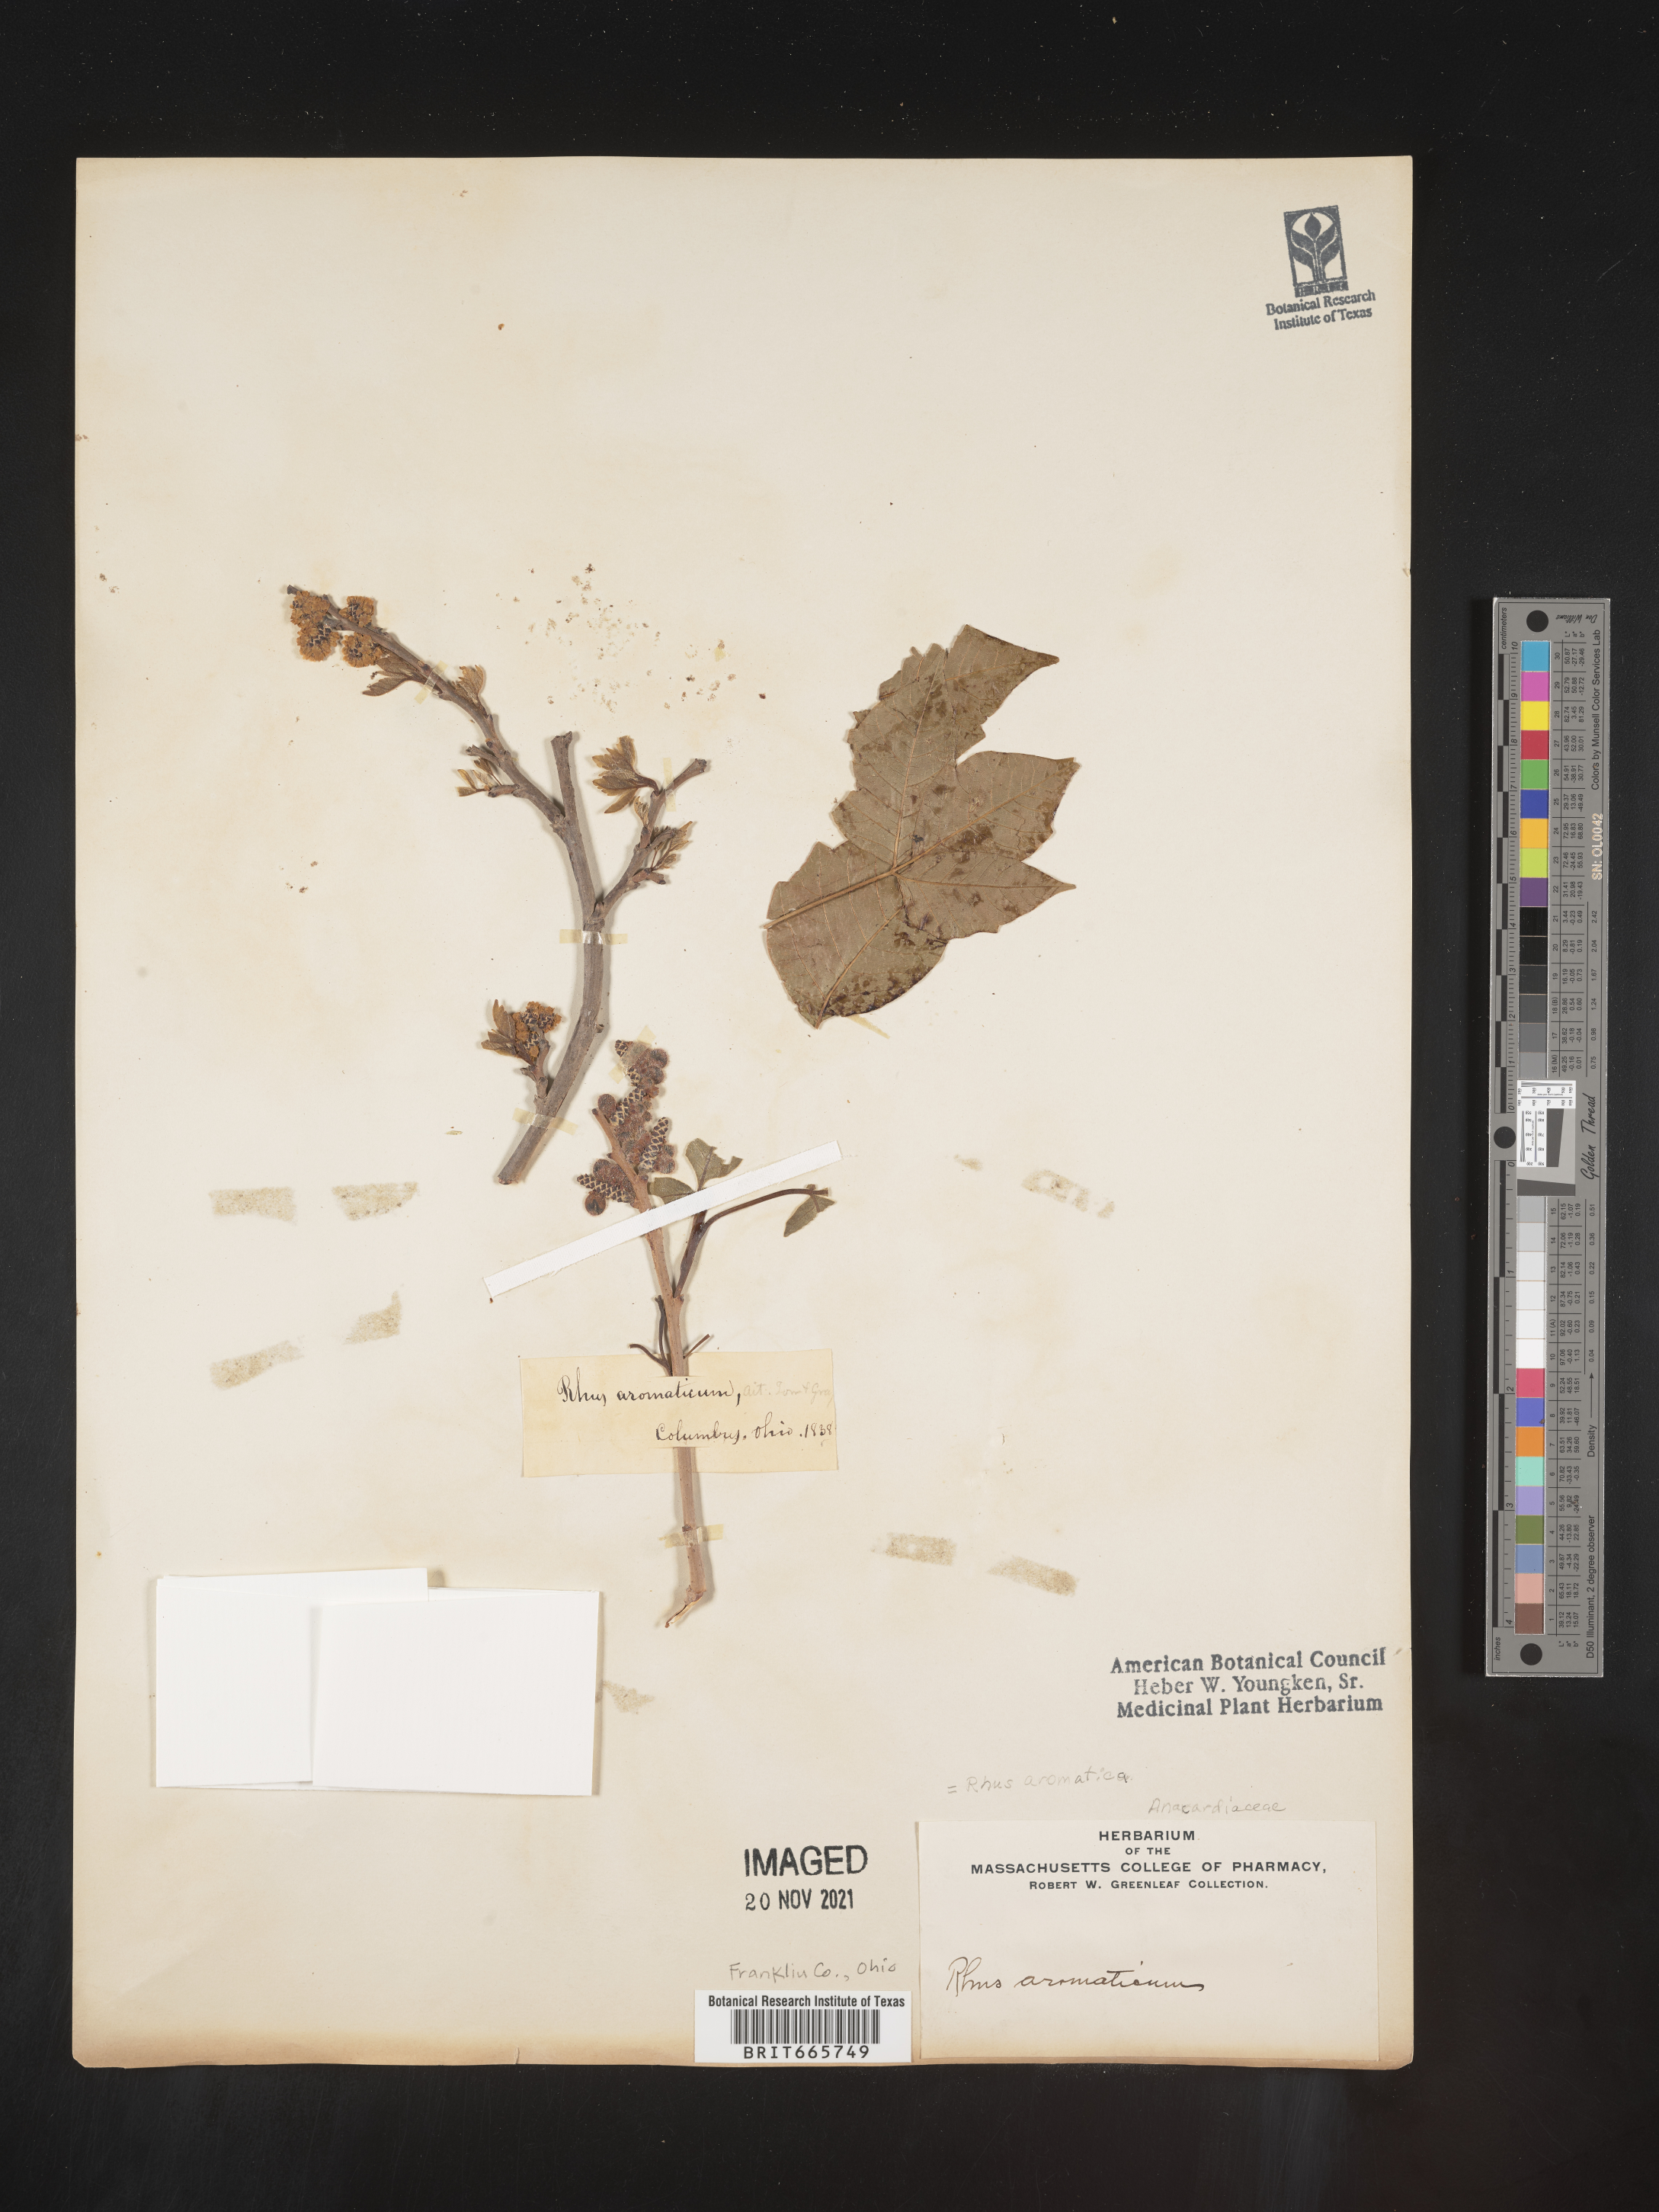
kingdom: Plantae
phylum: Tracheophyta
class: Magnoliopsida
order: Sapindales
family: Anacardiaceae
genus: Rhus
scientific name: Rhus aromatica
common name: Aromatic sumac
